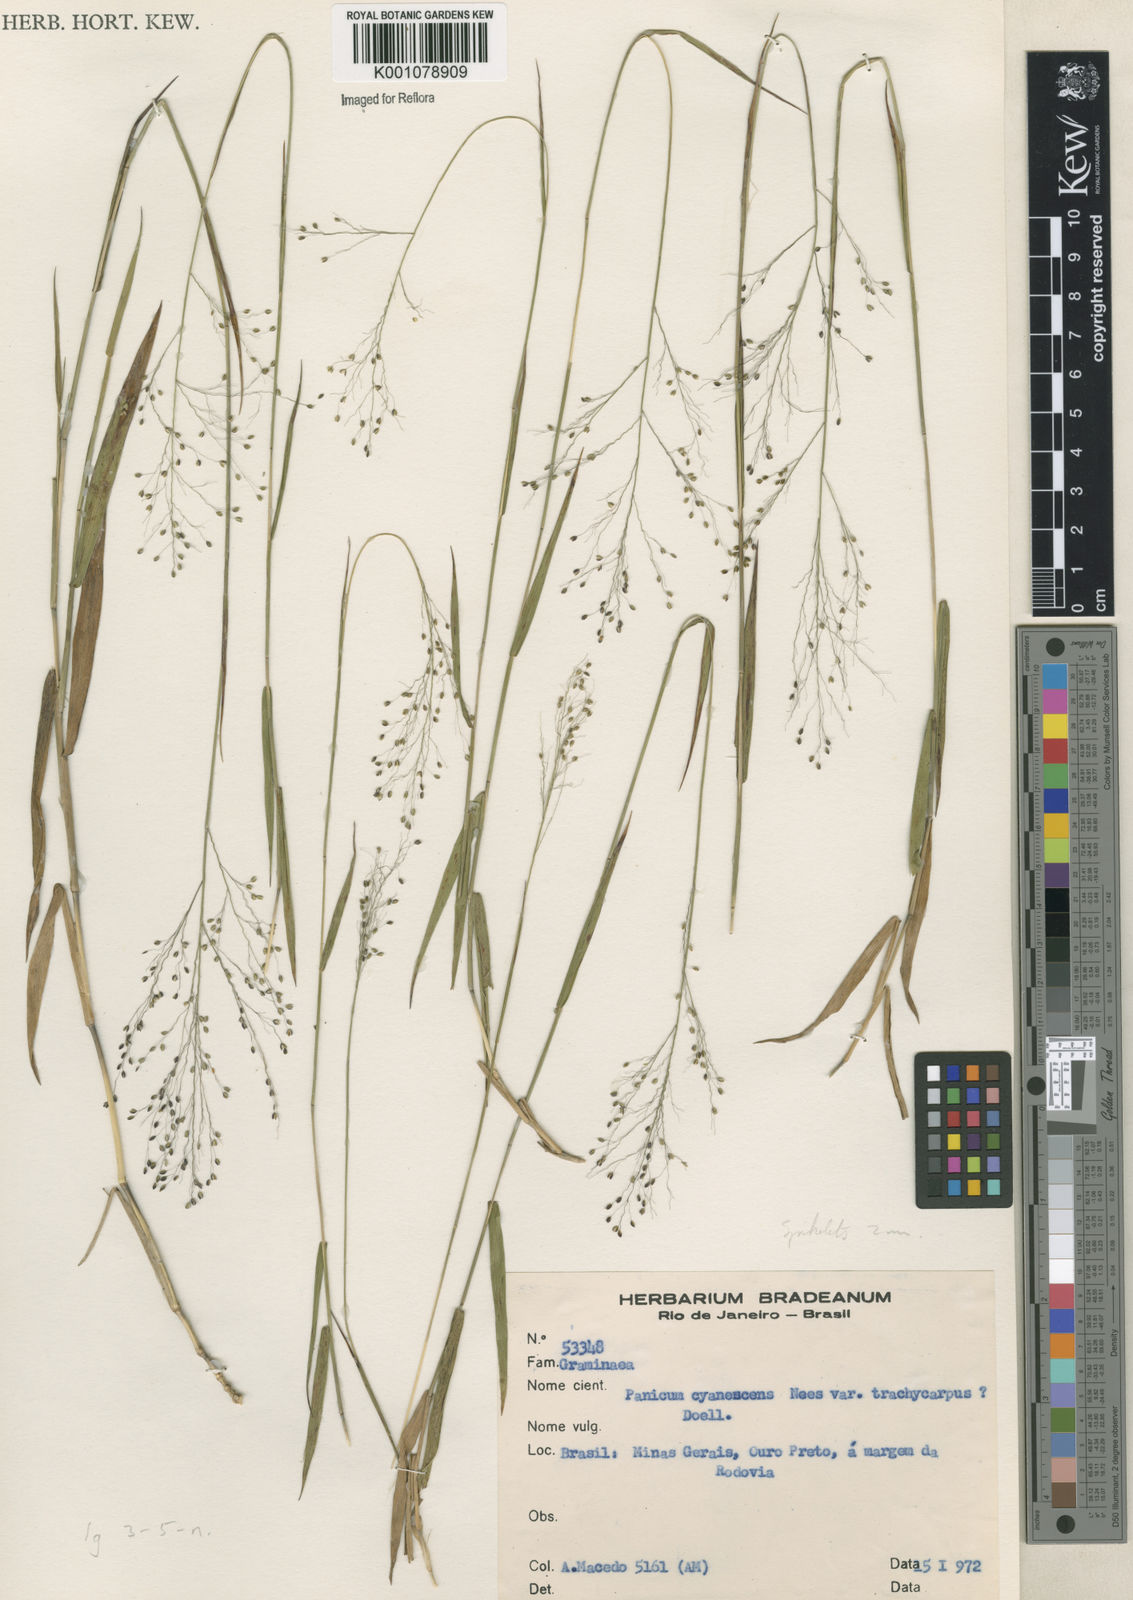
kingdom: Plantae
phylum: Tracheophyta
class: Liliopsida
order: Poales
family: Poaceae
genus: Trichanthecium
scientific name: Trichanthecium cyanescens
